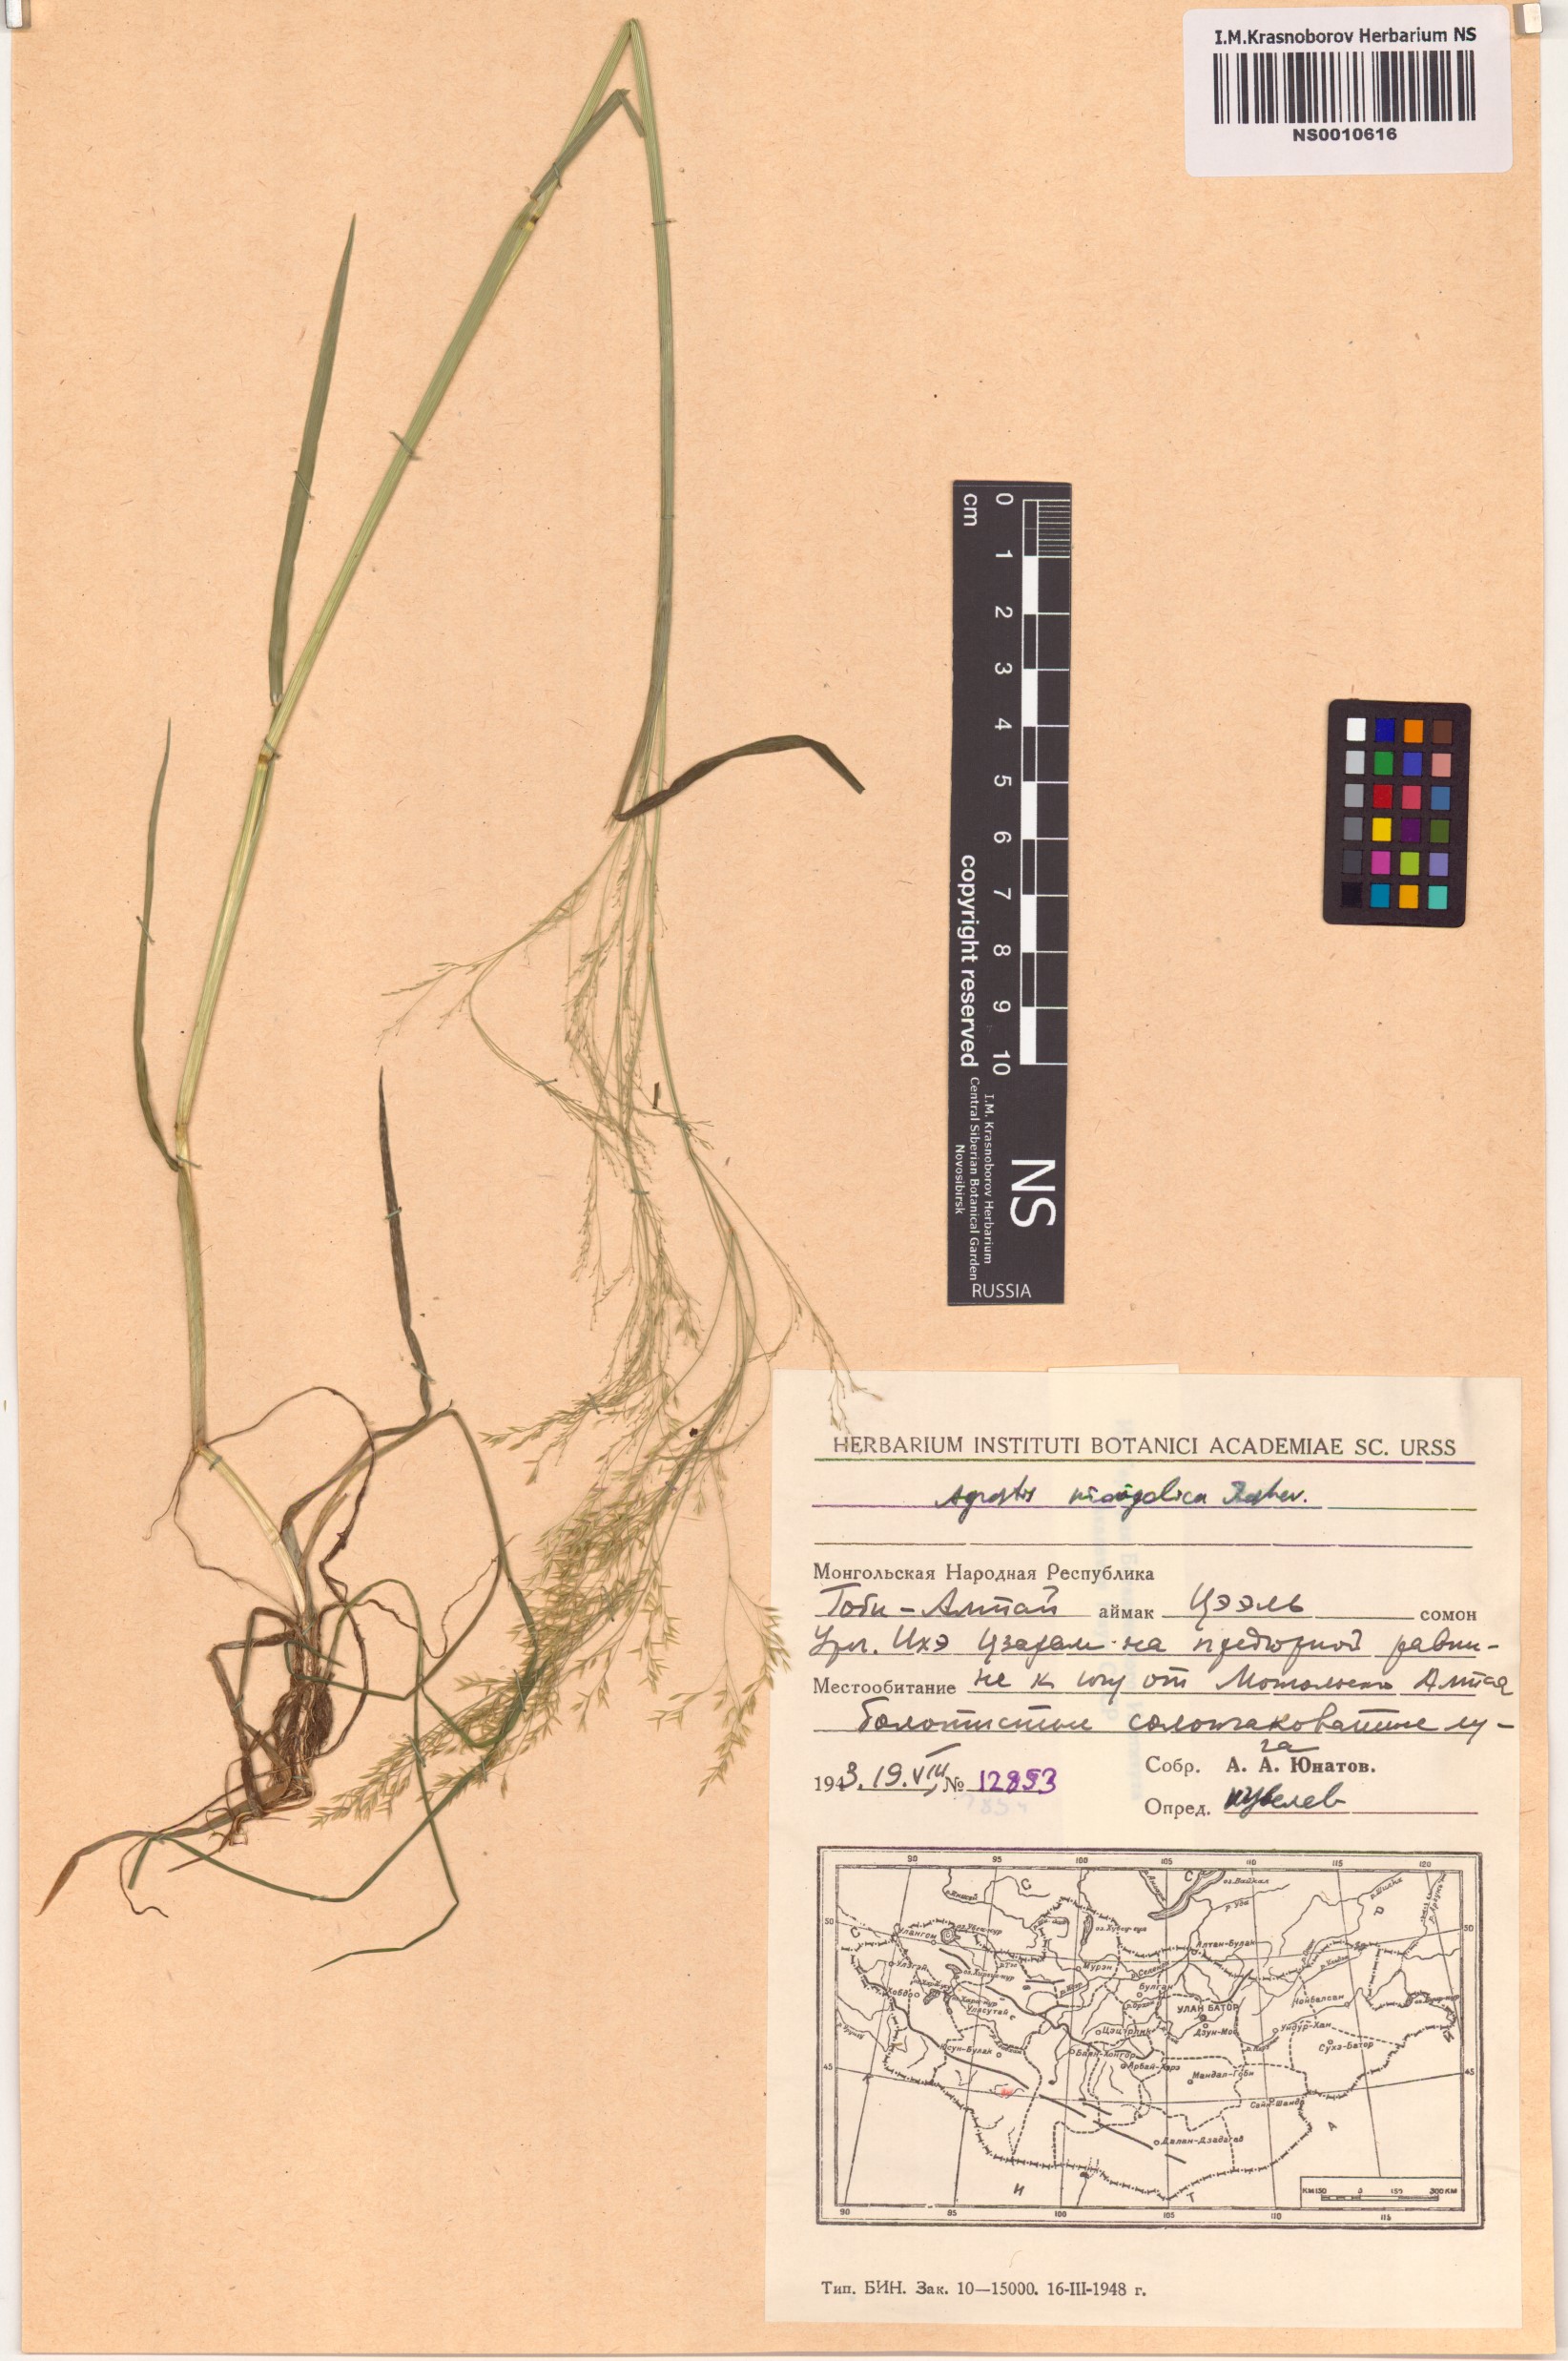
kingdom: Plantae
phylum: Tracheophyta
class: Liliopsida
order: Poales
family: Poaceae
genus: Agrostis
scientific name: Agrostis divaricatissima
